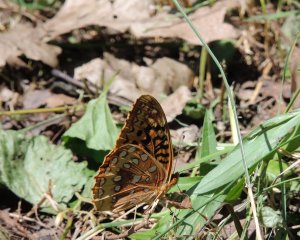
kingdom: Animalia
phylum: Arthropoda
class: Insecta
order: Lepidoptera
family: Nymphalidae
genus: Speyeria
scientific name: Speyeria cybele
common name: Great Spangled Fritillary
